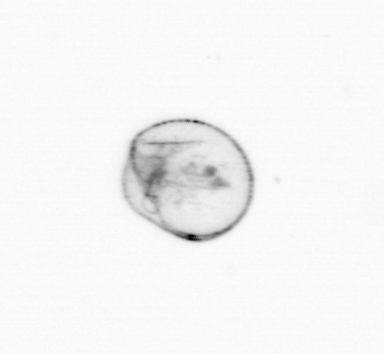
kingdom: Chromista
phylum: Myzozoa
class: Dinophyceae
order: Noctilucales
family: Noctilucaceae
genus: Noctiluca
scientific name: Noctiluca scintillans
